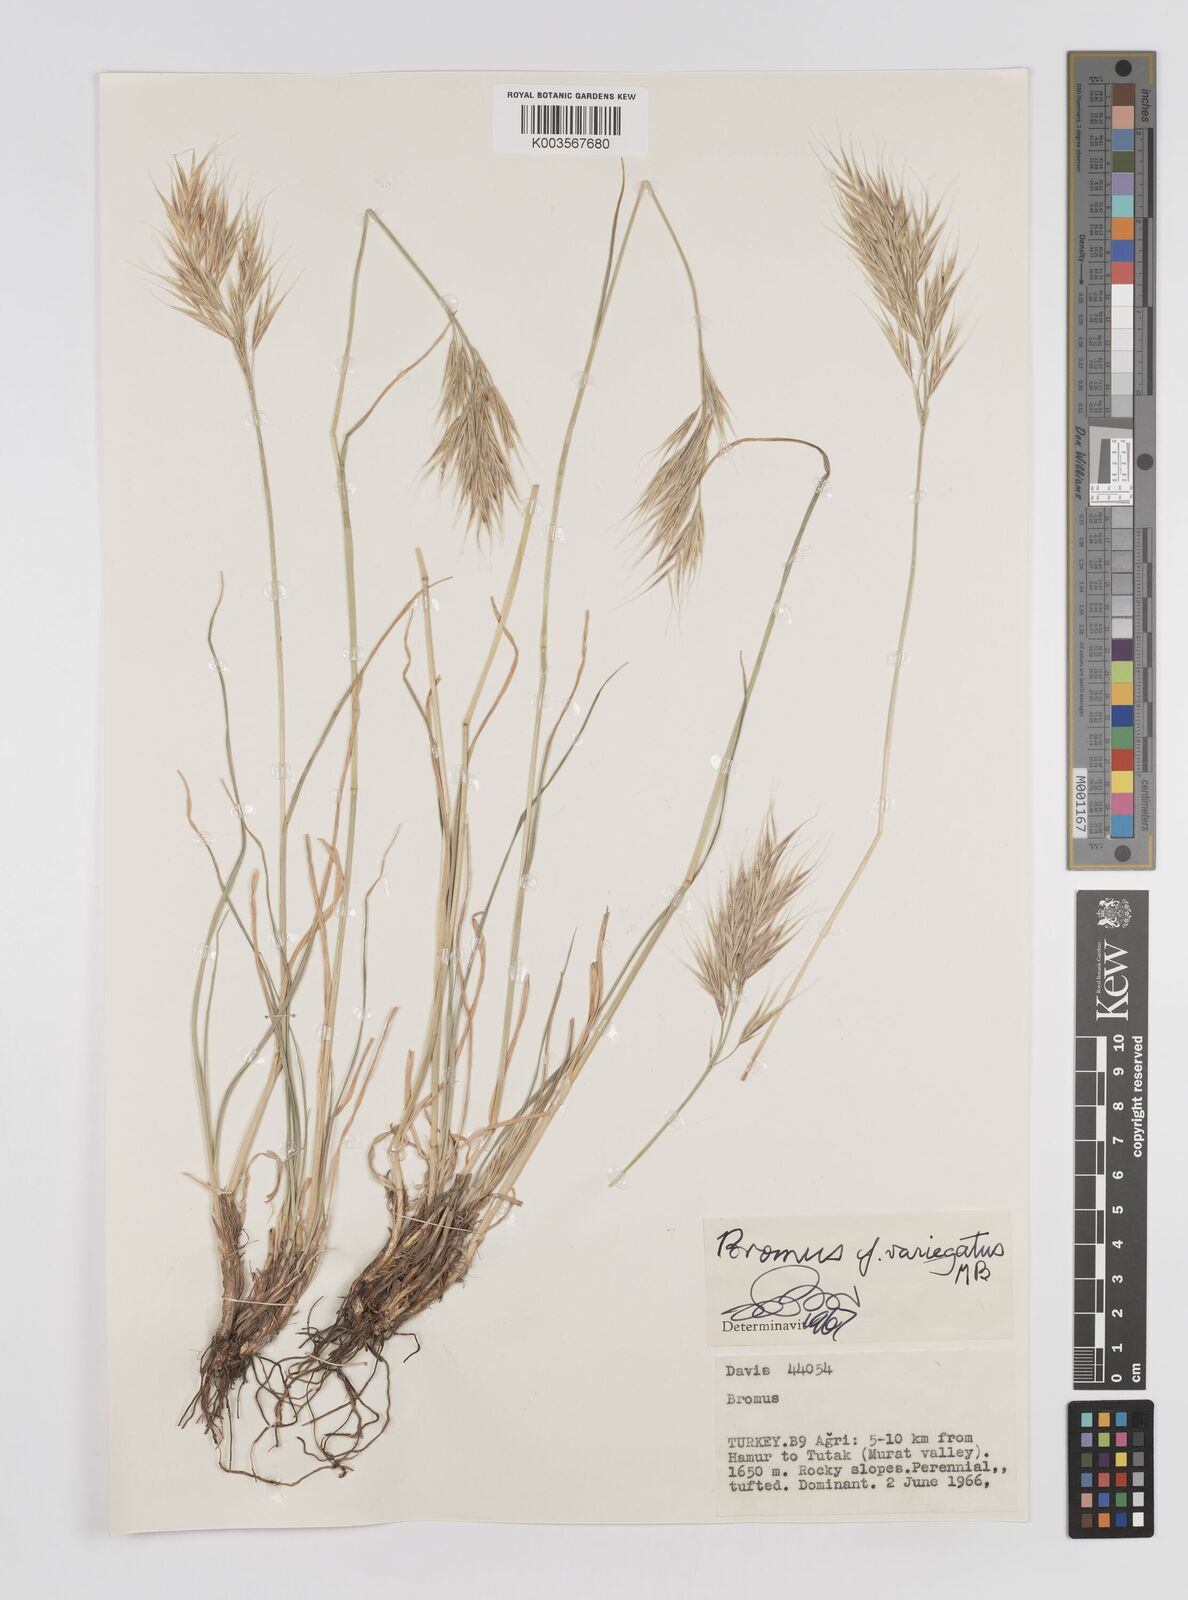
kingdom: Plantae
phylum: Tracheophyta
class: Liliopsida
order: Poales
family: Poaceae
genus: Bromus
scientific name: Bromus
